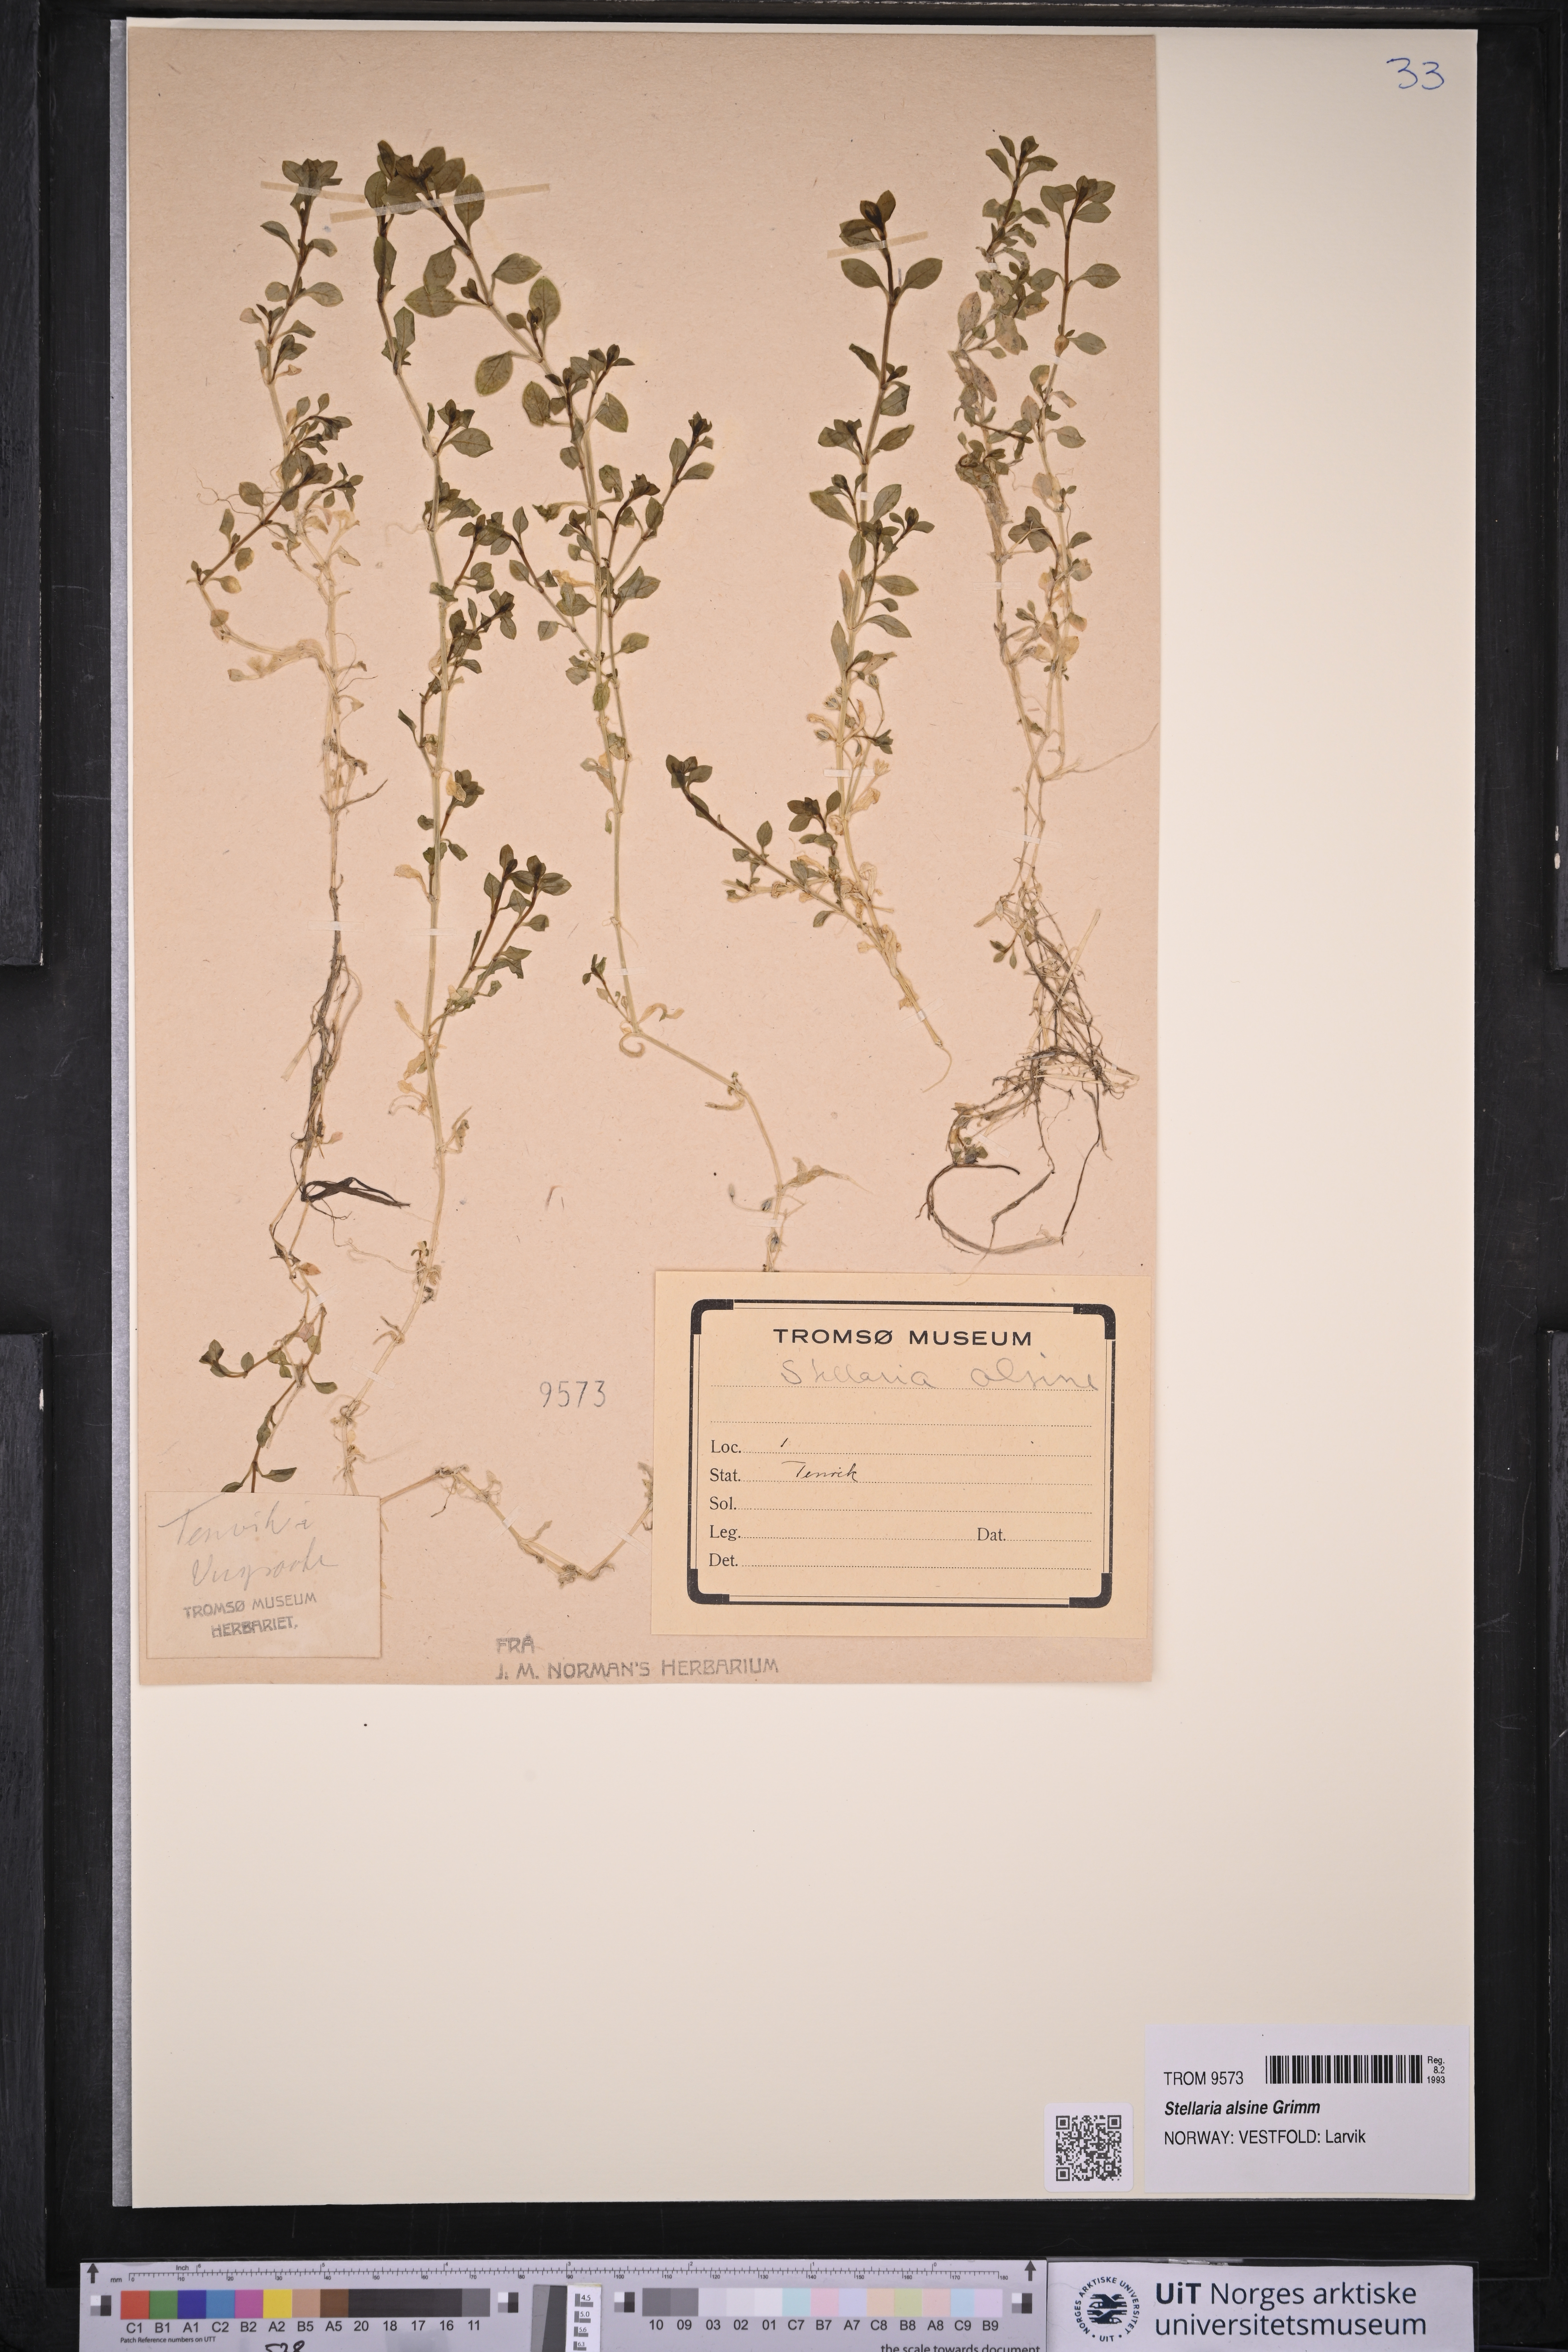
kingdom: Plantae
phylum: Tracheophyta
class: Magnoliopsida
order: Caryophyllales
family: Caryophyllaceae
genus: Stellaria
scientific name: Stellaria alsine
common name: Bog stitchwort
